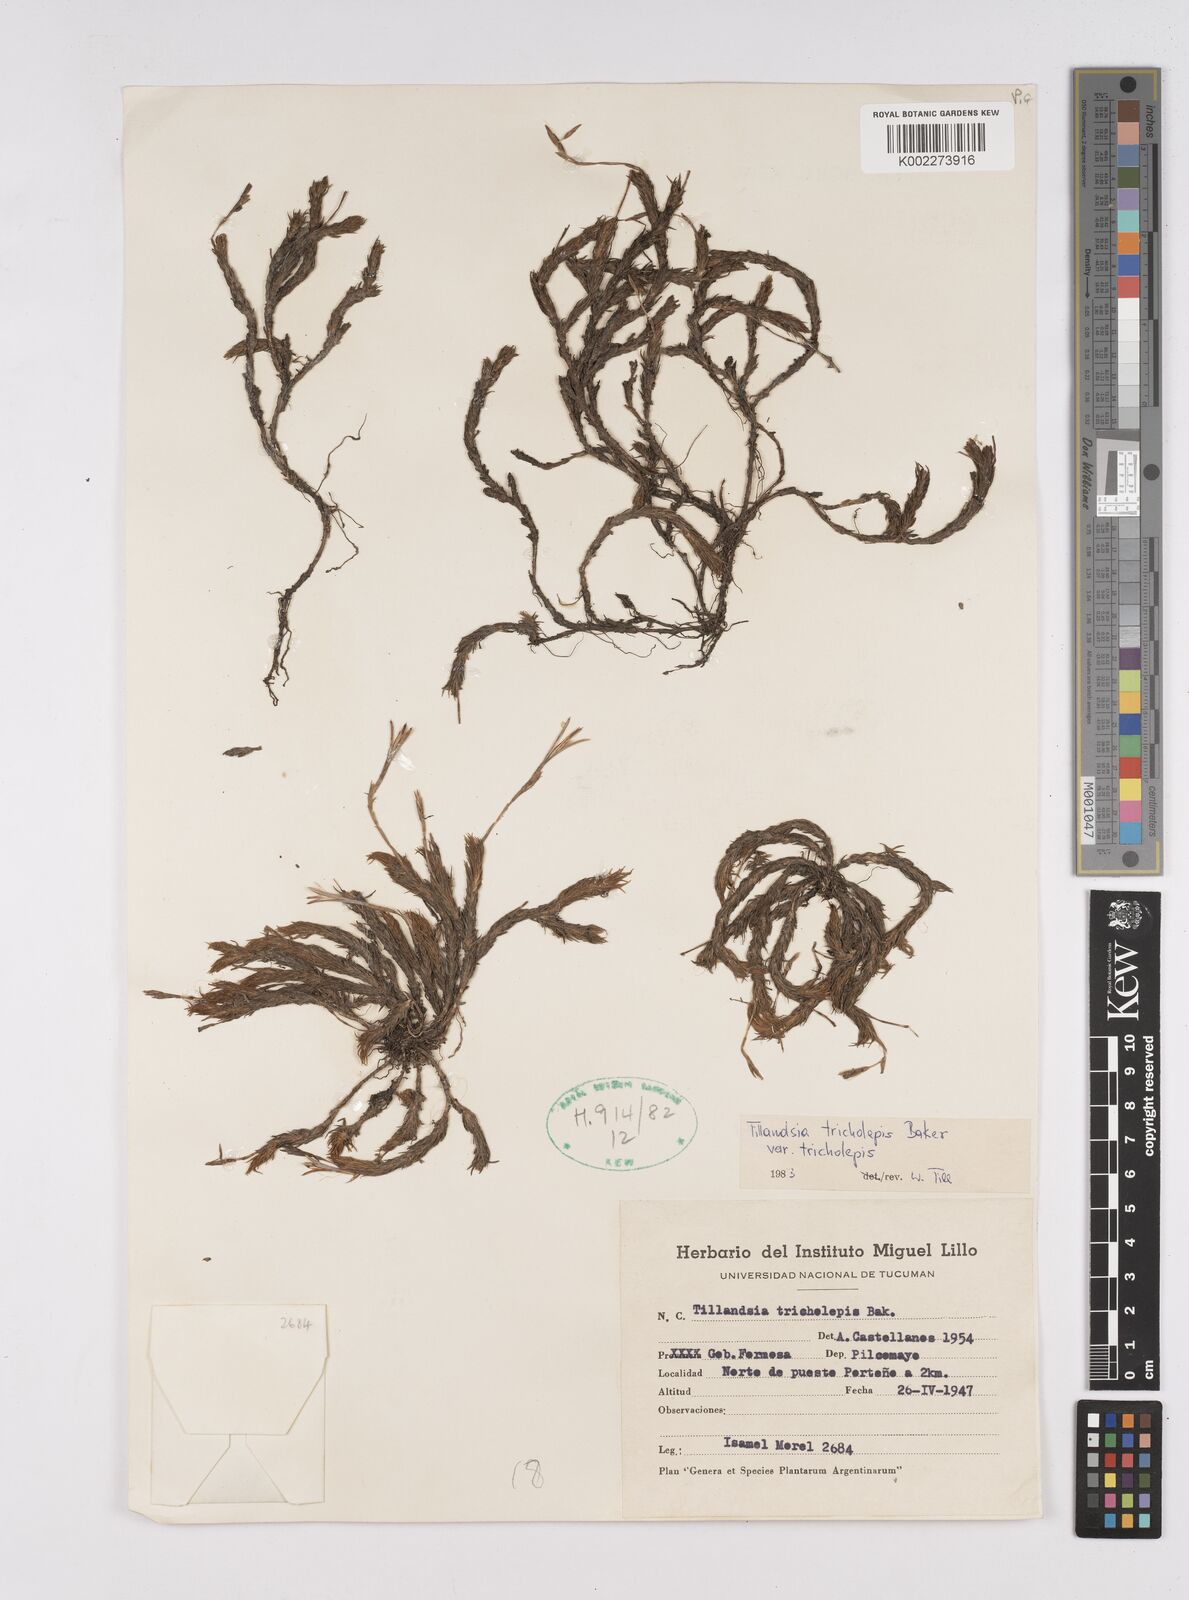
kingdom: Plantae
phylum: Tracheophyta
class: Liliopsida
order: Poales
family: Bromeliaceae
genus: Tillandsia
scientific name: Tillandsia tricholepis
